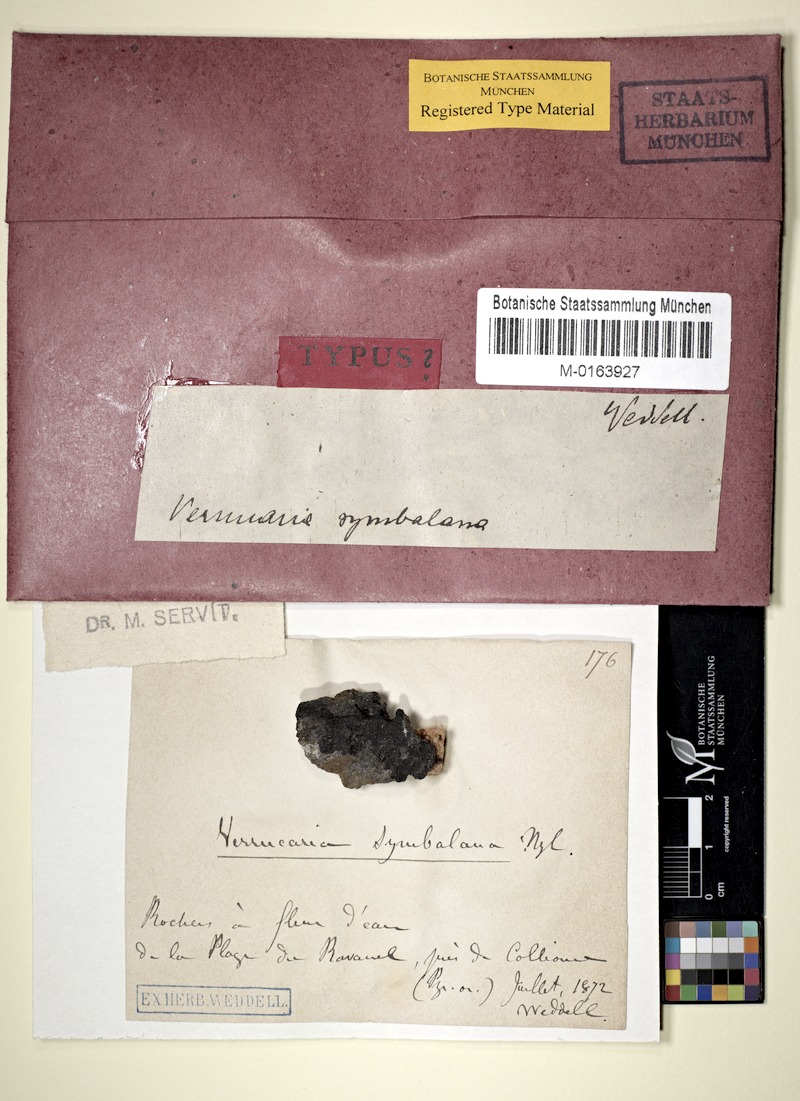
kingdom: Fungi
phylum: Ascomycota
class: Eurotiomycetes
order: Verrucariales
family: Verrucariaceae
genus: Hydropunctaria
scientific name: Hydropunctaria symbalana
